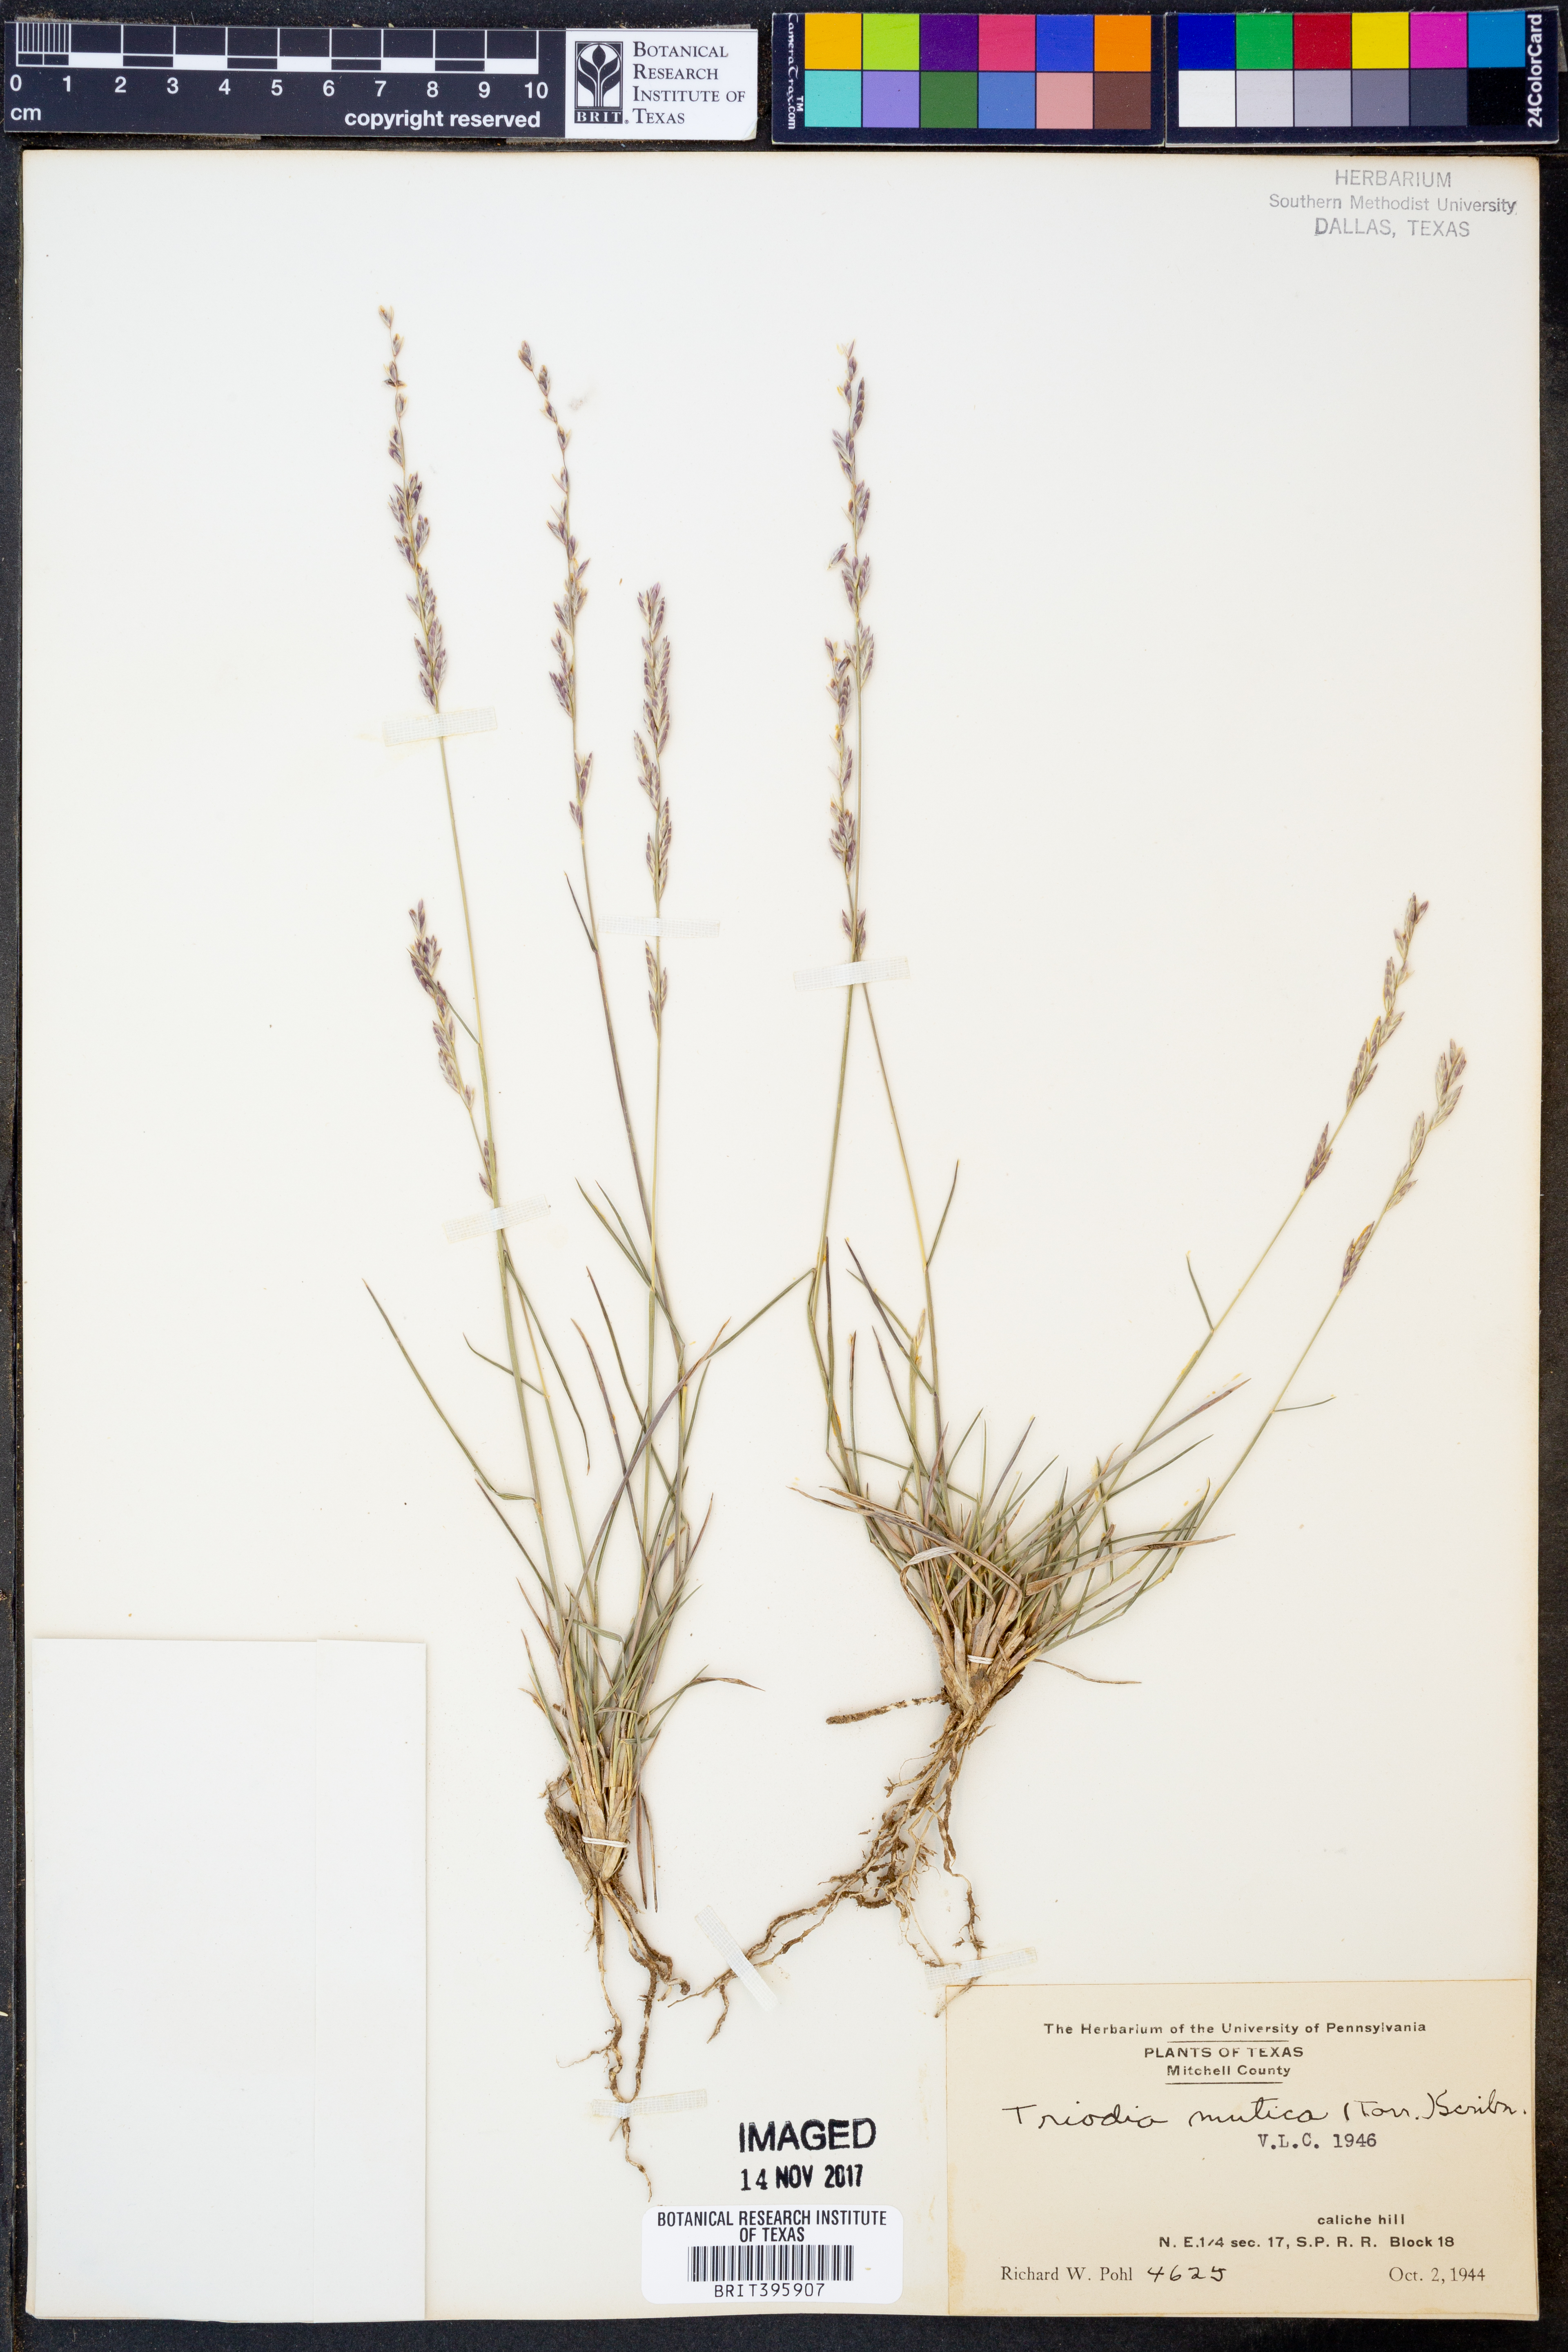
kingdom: Plantae
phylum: Tracheophyta
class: Liliopsida
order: Poales
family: Poaceae
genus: Tridentopsis
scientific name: Tridentopsis mutica
